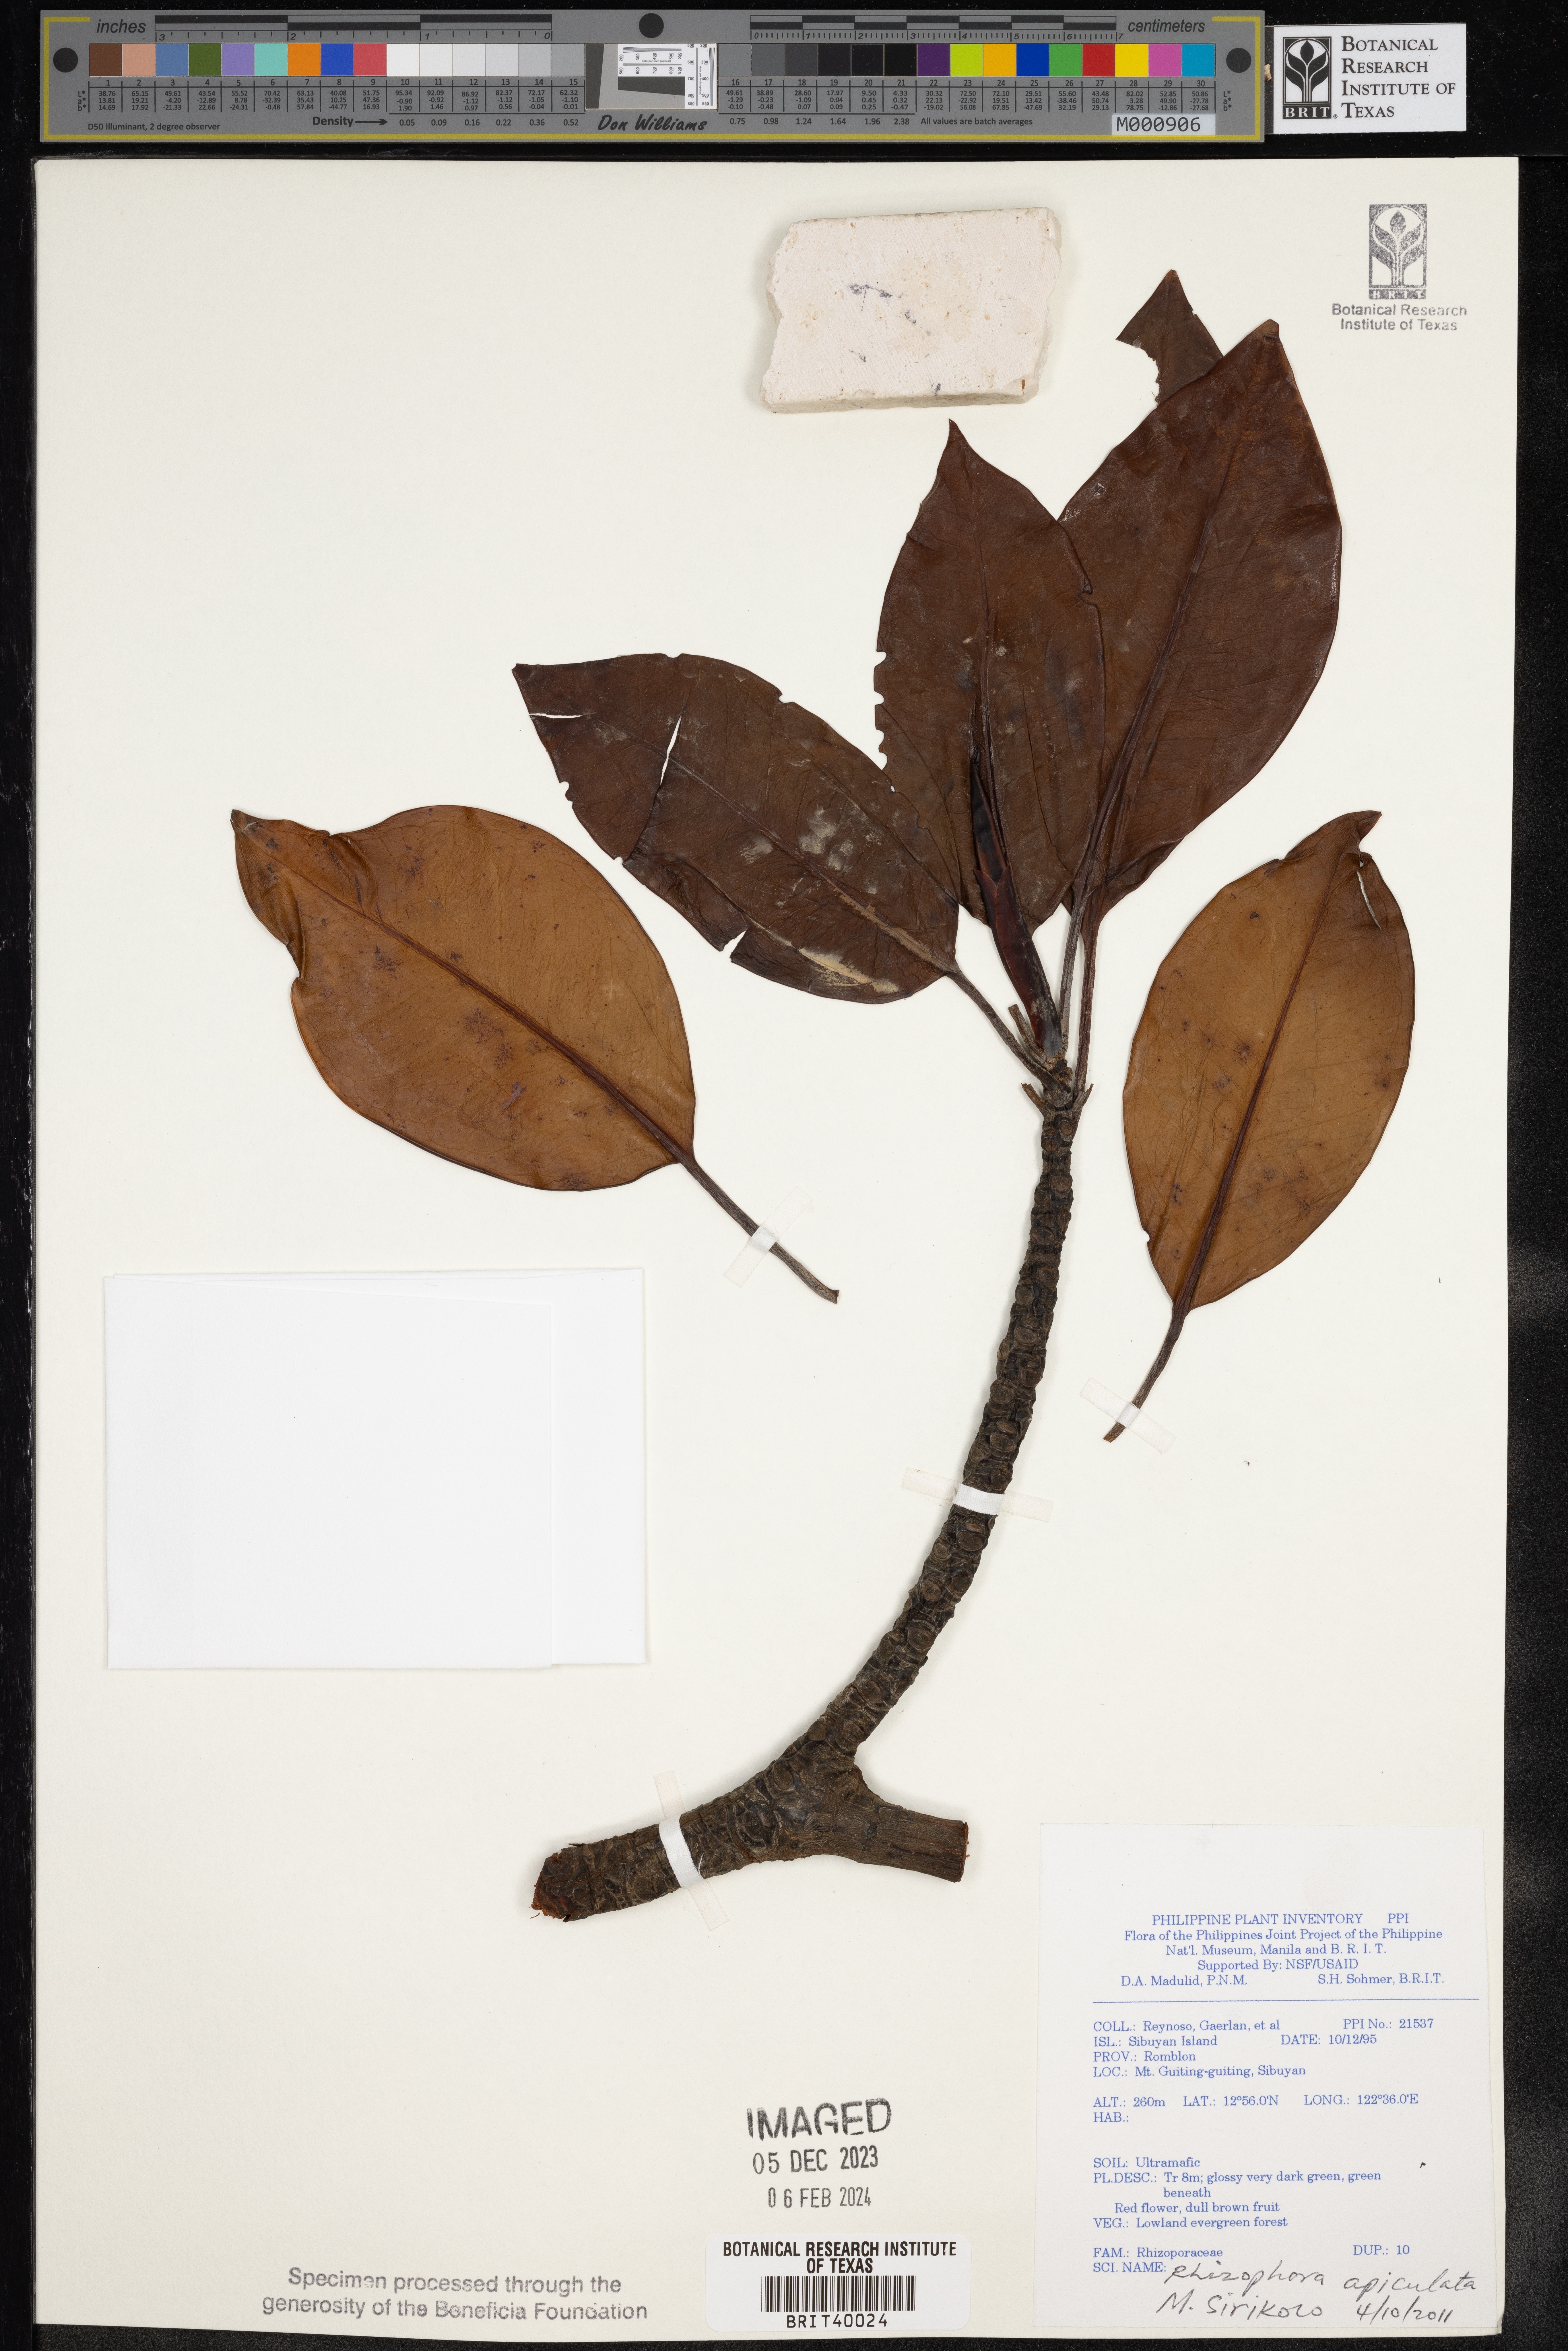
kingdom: Plantae
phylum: Tracheophyta
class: Magnoliopsida
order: Malpighiales
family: Rhizophoraceae
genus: Rhizophora
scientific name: Rhizophora apiculata
